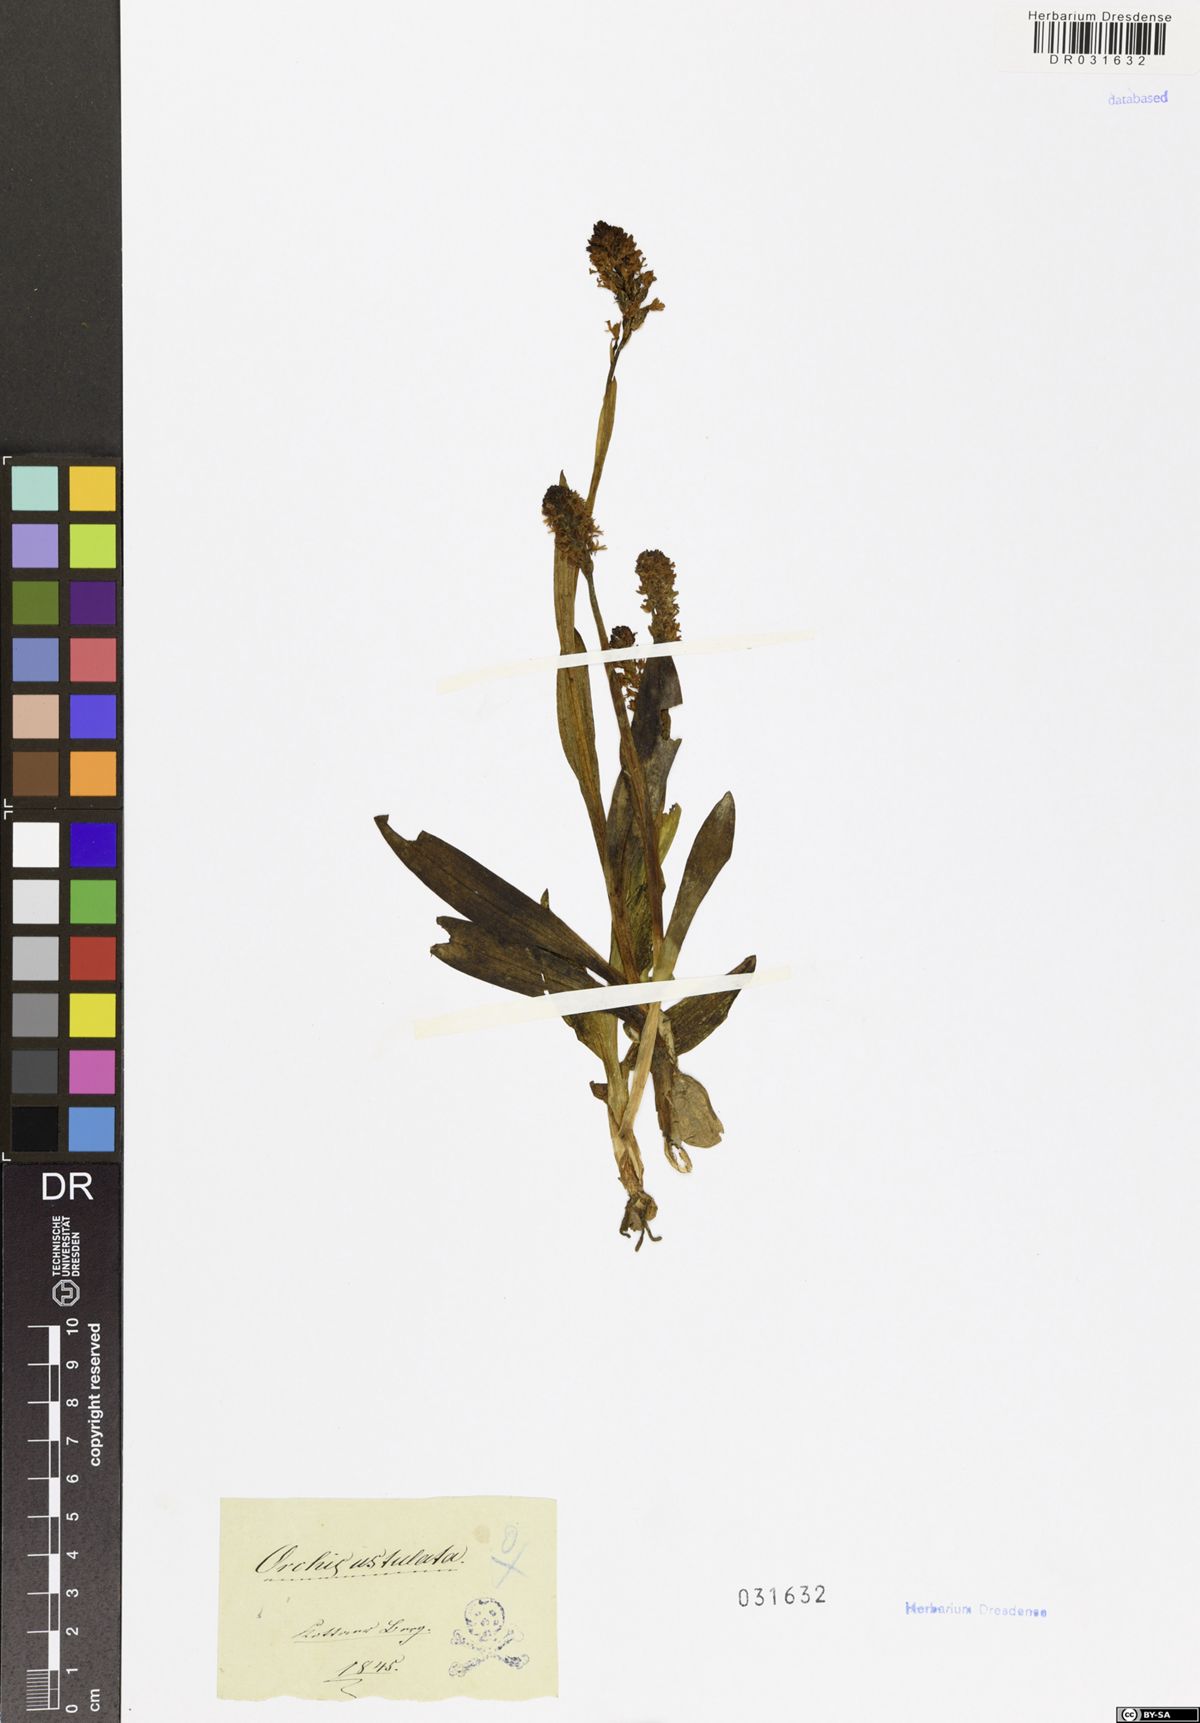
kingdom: Plantae
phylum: Tracheophyta
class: Liliopsida
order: Asparagales
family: Orchidaceae
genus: Neotinea
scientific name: Neotinea ustulata
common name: Burnt orchid
